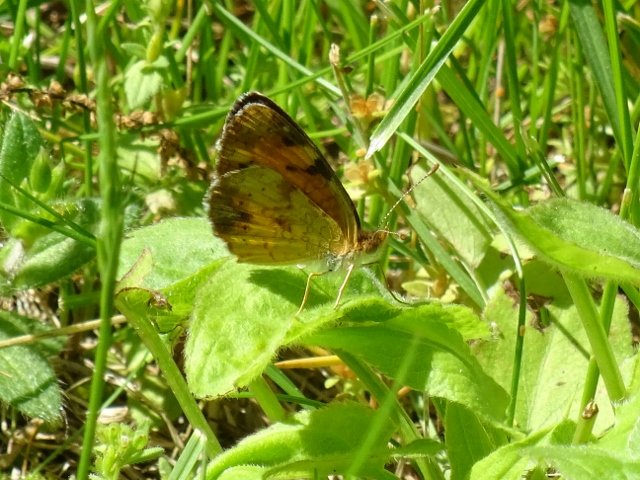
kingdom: Animalia
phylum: Arthropoda
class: Insecta
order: Lepidoptera
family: Nymphalidae
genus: Phyciodes
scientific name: Phyciodes tharos
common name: Pearl Crescent
